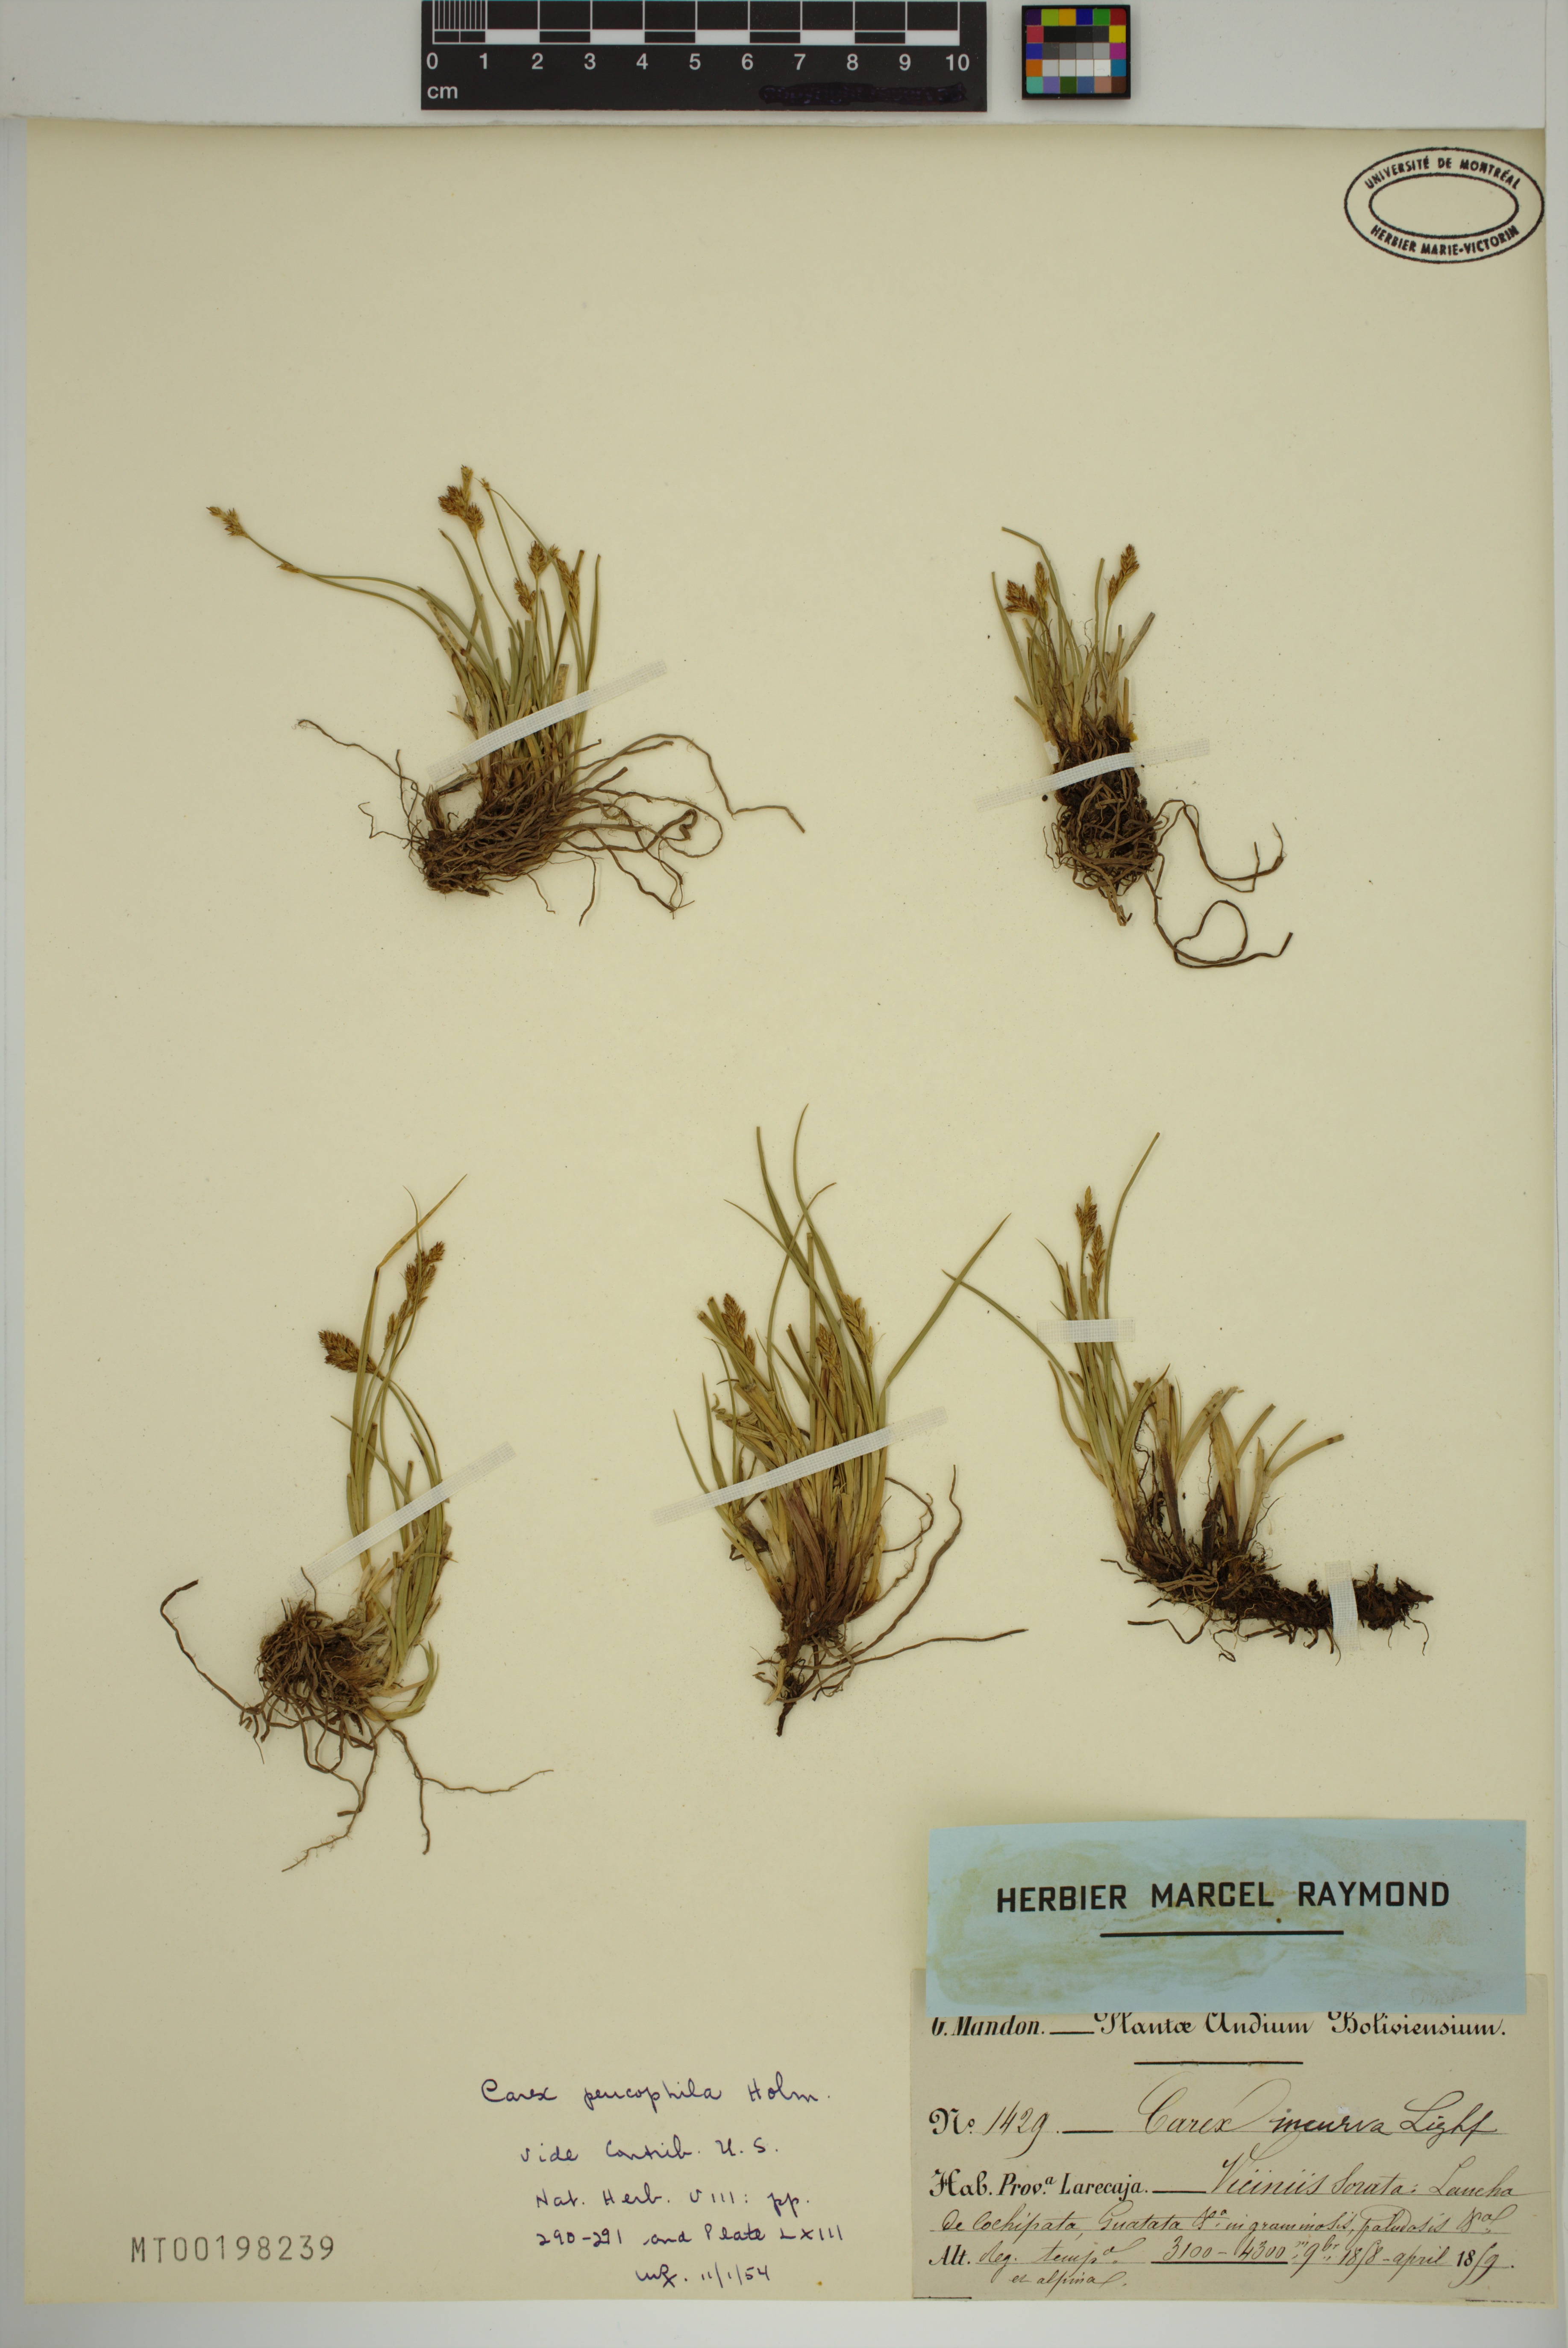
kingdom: Plantae
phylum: Tracheophyta
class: Liliopsida
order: Poales
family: Cyperaceae
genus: Carex
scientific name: Carex peucophila
